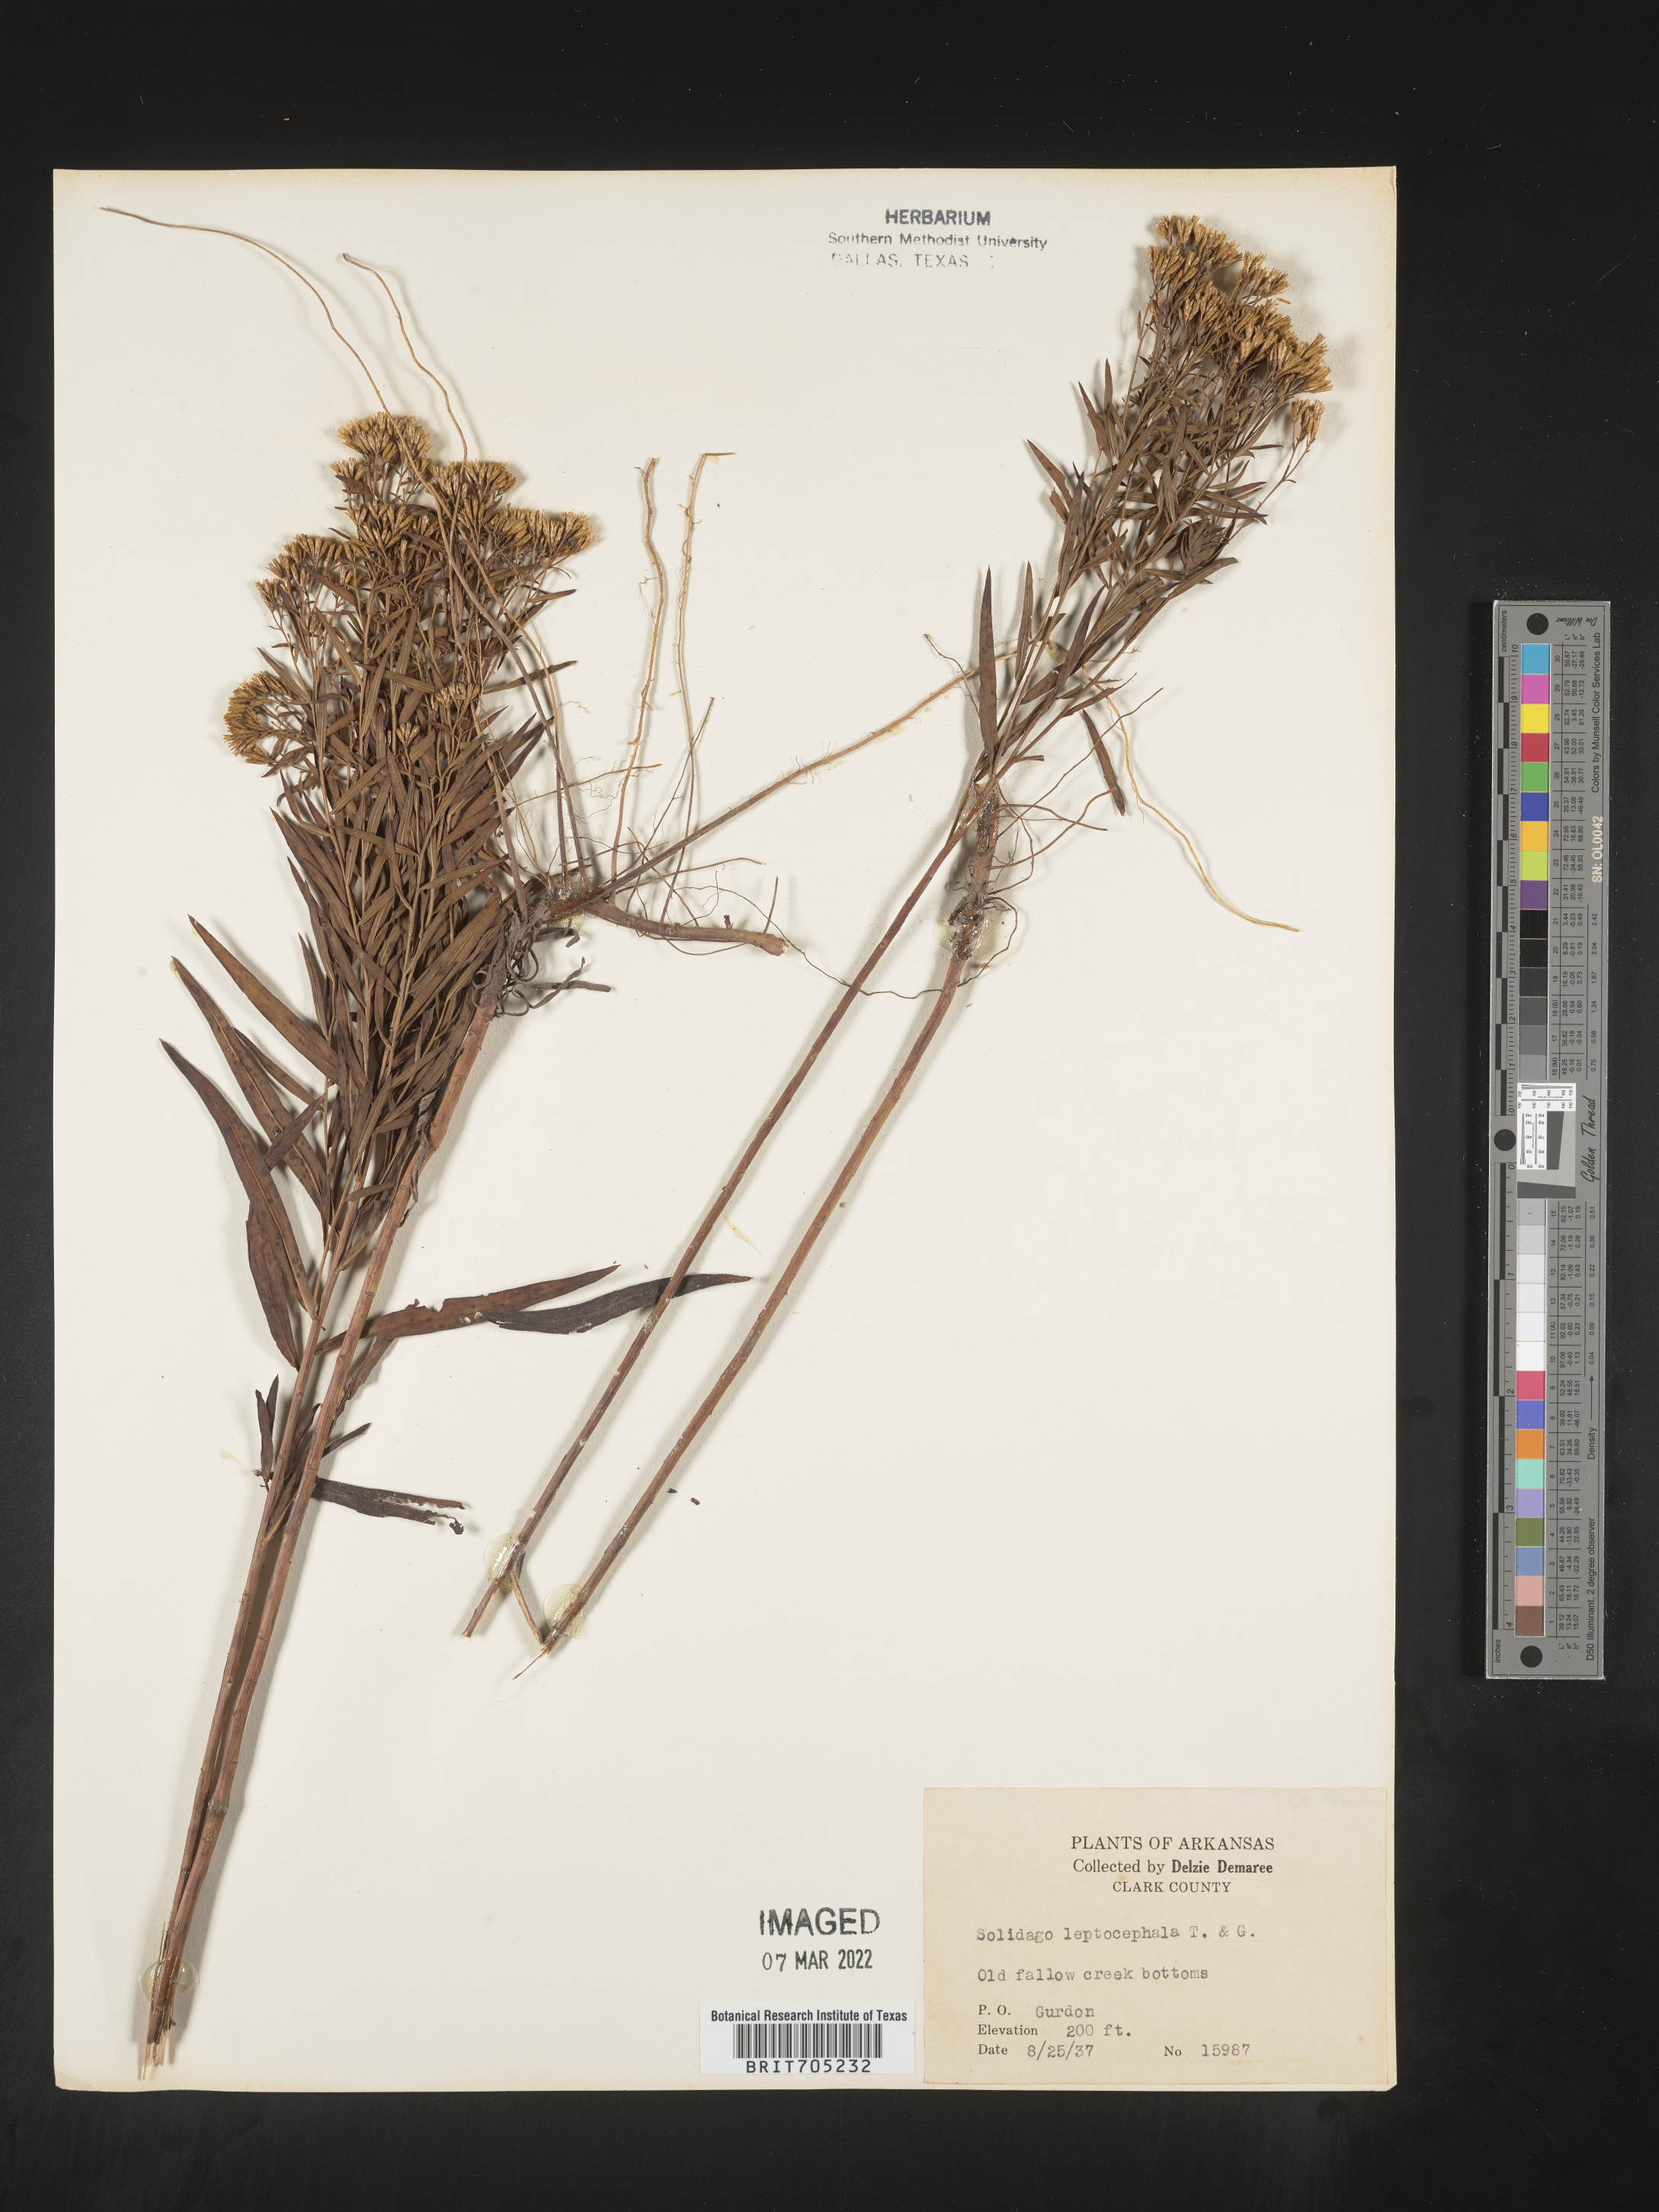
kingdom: Plantae
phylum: Tracheophyta
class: Magnoliopsida
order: Asterales
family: Asteraceae
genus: Euthamia
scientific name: Euthamia leptocephala
